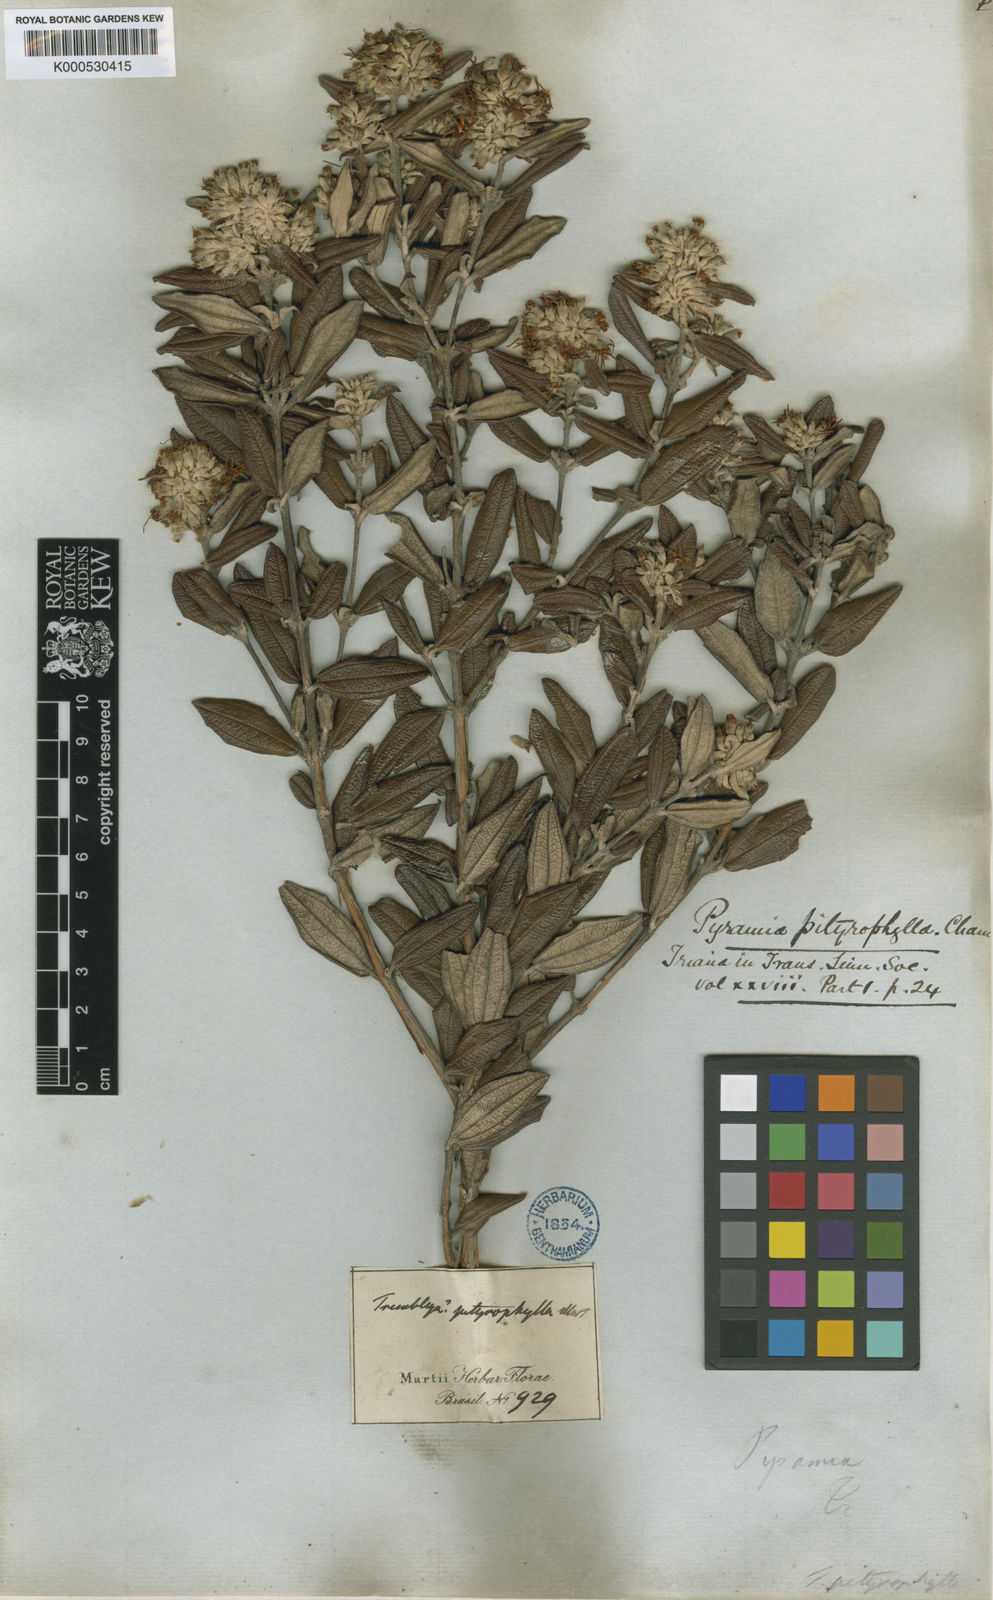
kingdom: Plantae
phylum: Tracheophyta
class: Magnoliopsida
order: Myrtales
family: Melastomataceae
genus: Cambessedesia
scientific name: Cambessedesia pityrophylla
